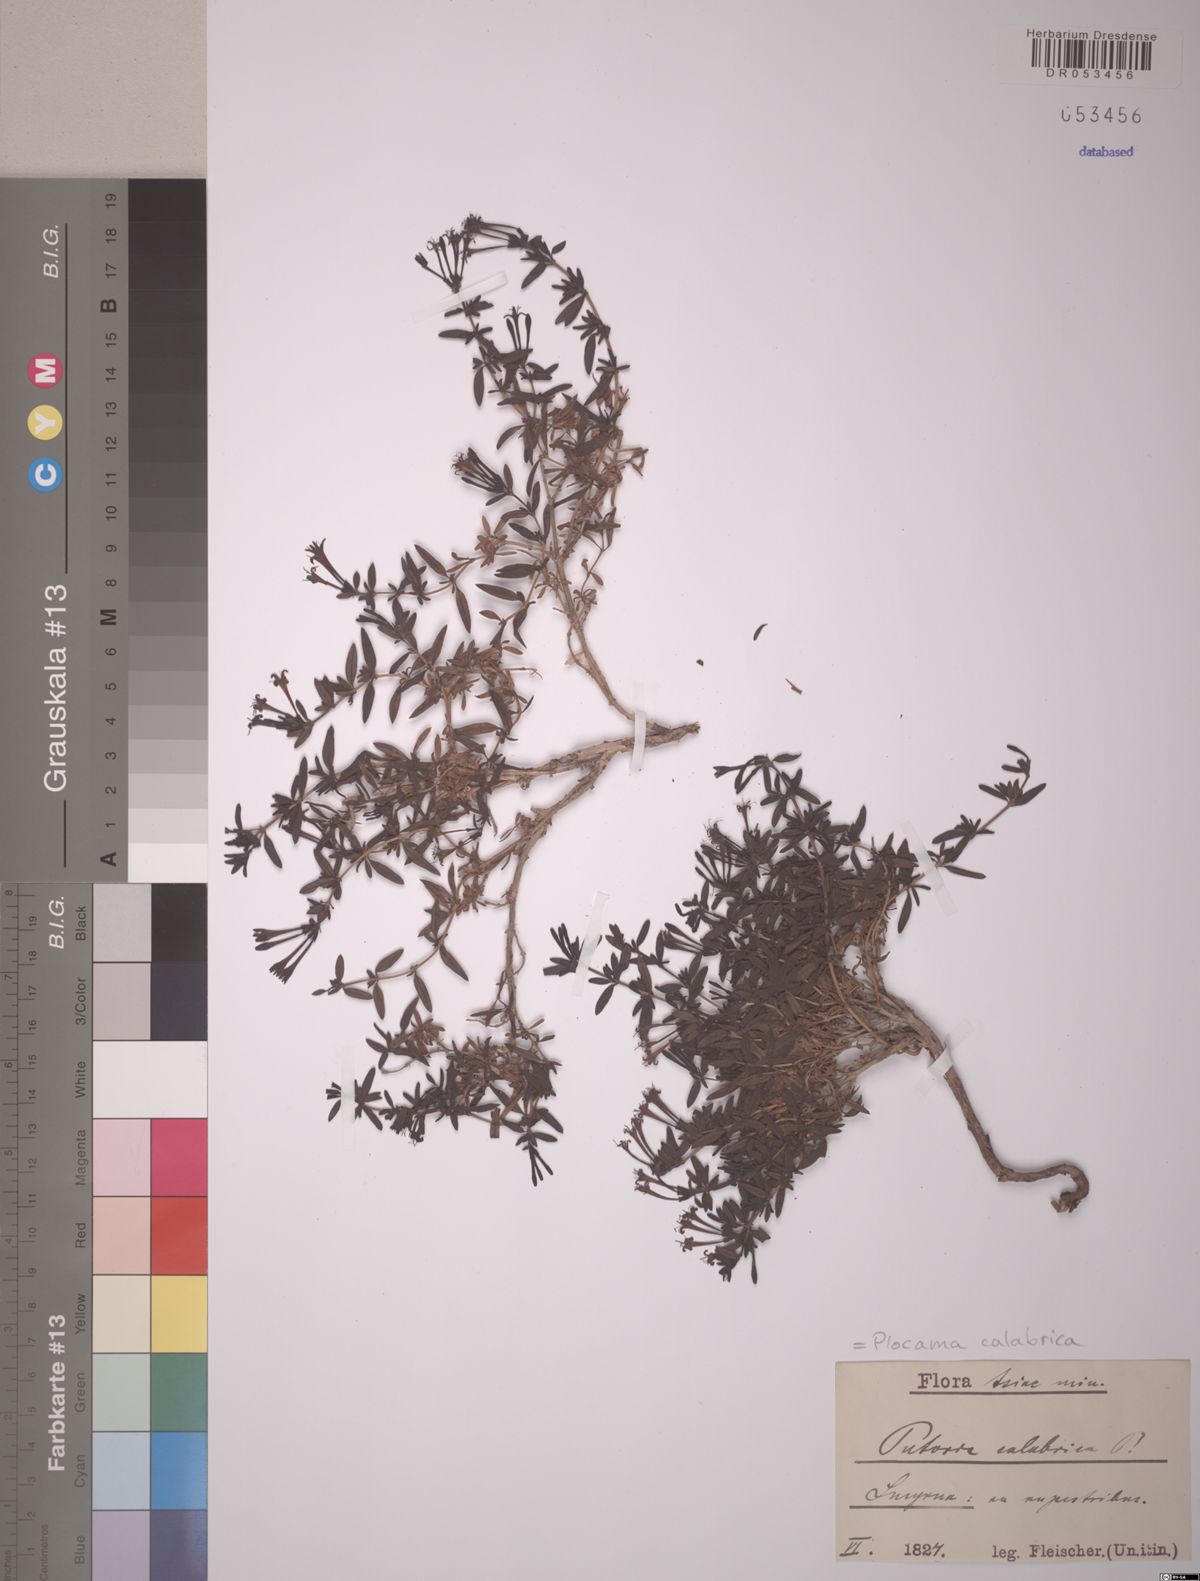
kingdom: Plantae
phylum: Tracheophyta
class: Magnoliopsida
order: Gentianales
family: Rubiaceae
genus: Plocama
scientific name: Plocama calabrica
